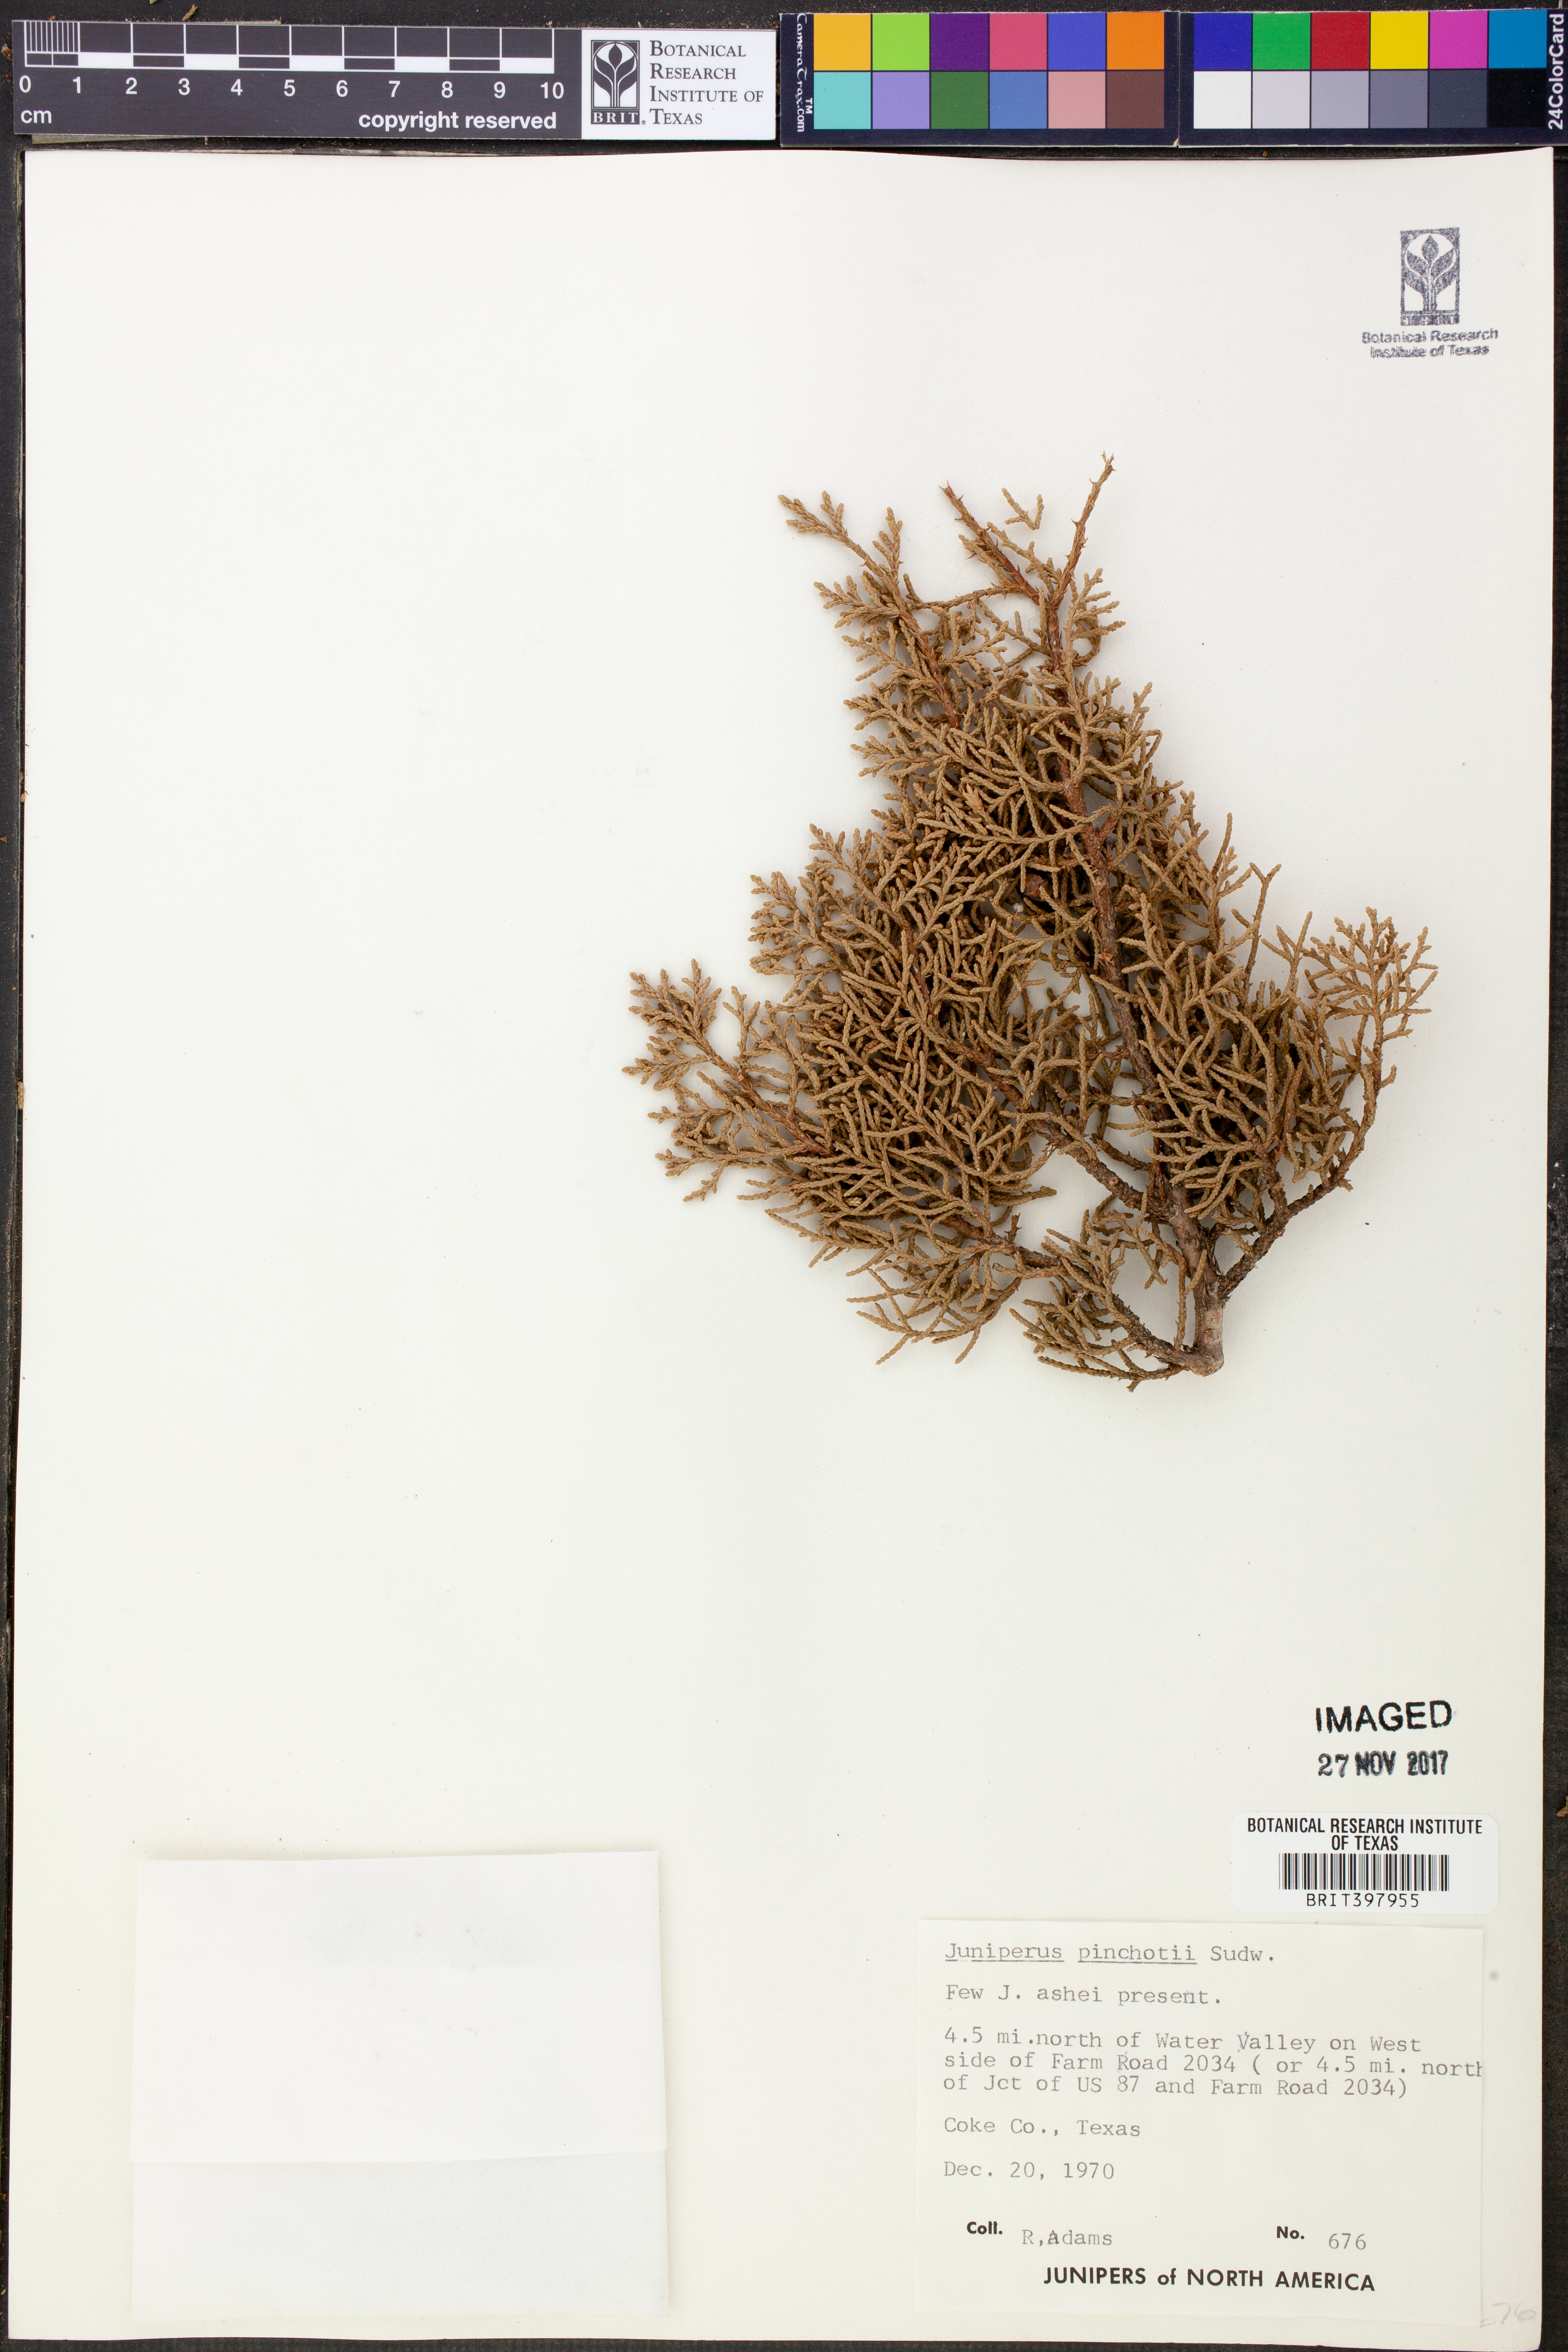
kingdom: Plantae
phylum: Tracheophyta
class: Pinopsida
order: Pinales
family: Cupressaceae
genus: Juniperus
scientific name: Juniperus pinchotii
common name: Pinchot juniper
